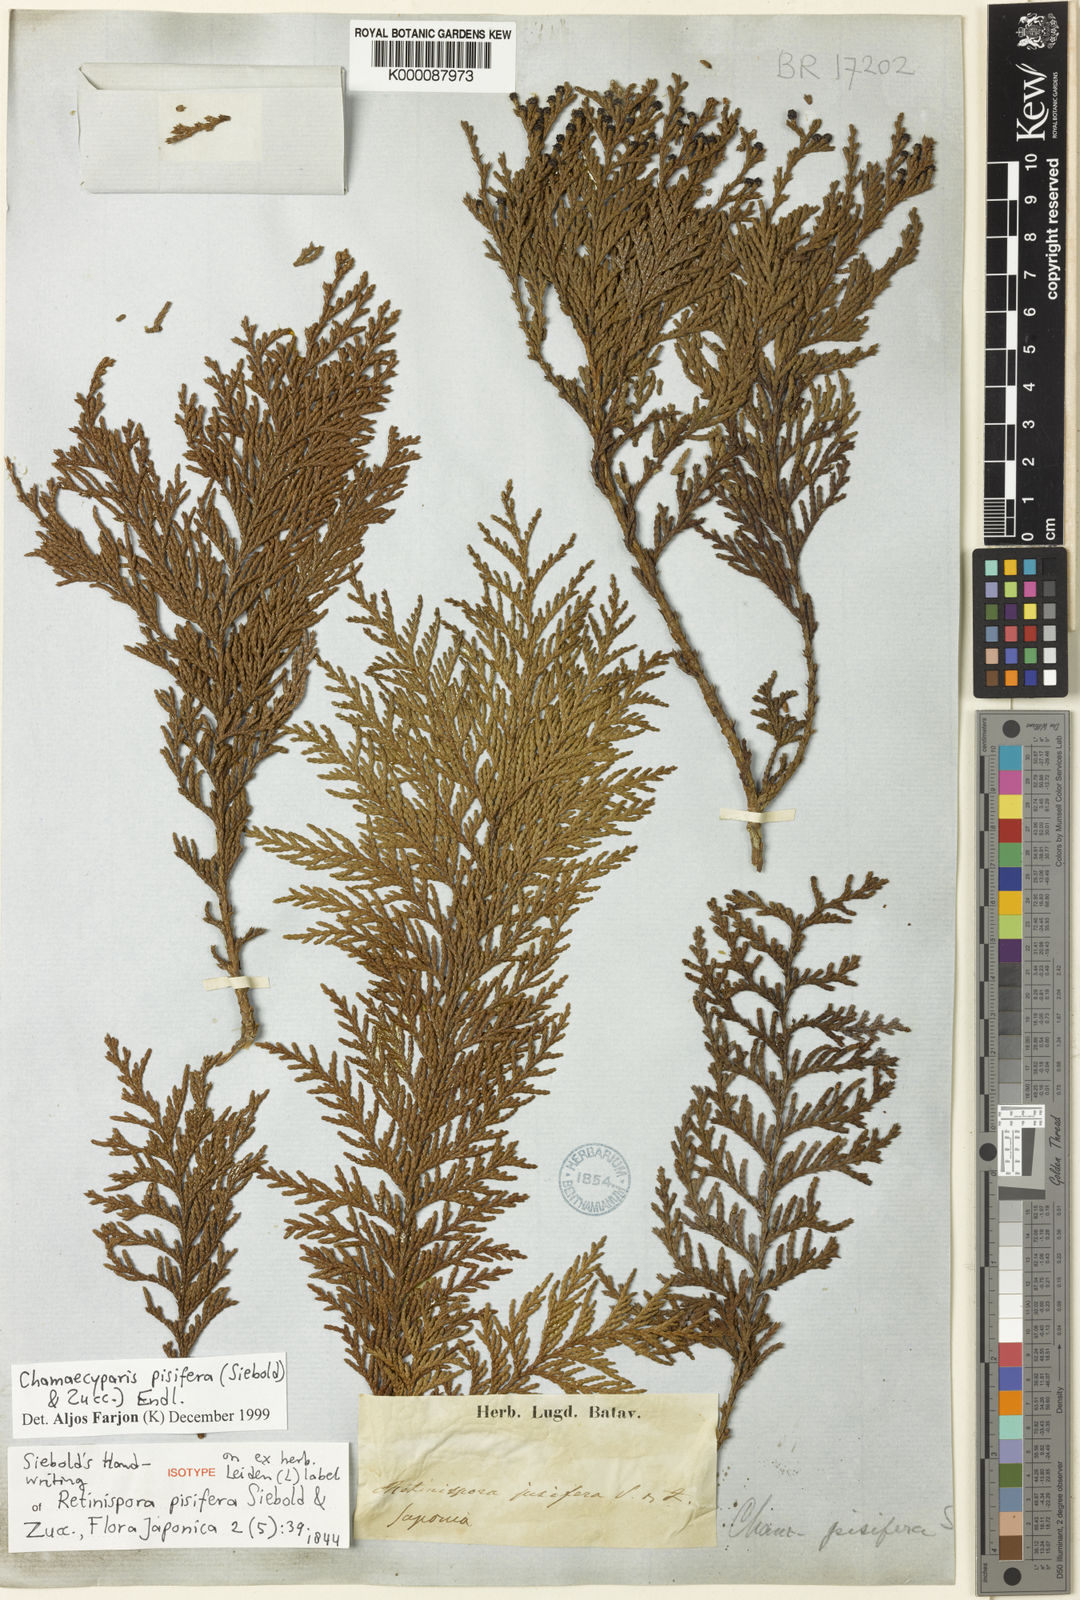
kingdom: Plantae
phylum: Tracheophyta
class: Pinopsida
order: Pinales
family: Cupressaceae
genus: Chamaecyparis
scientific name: Chamaecyparis pisifera
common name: Sawara cypress
